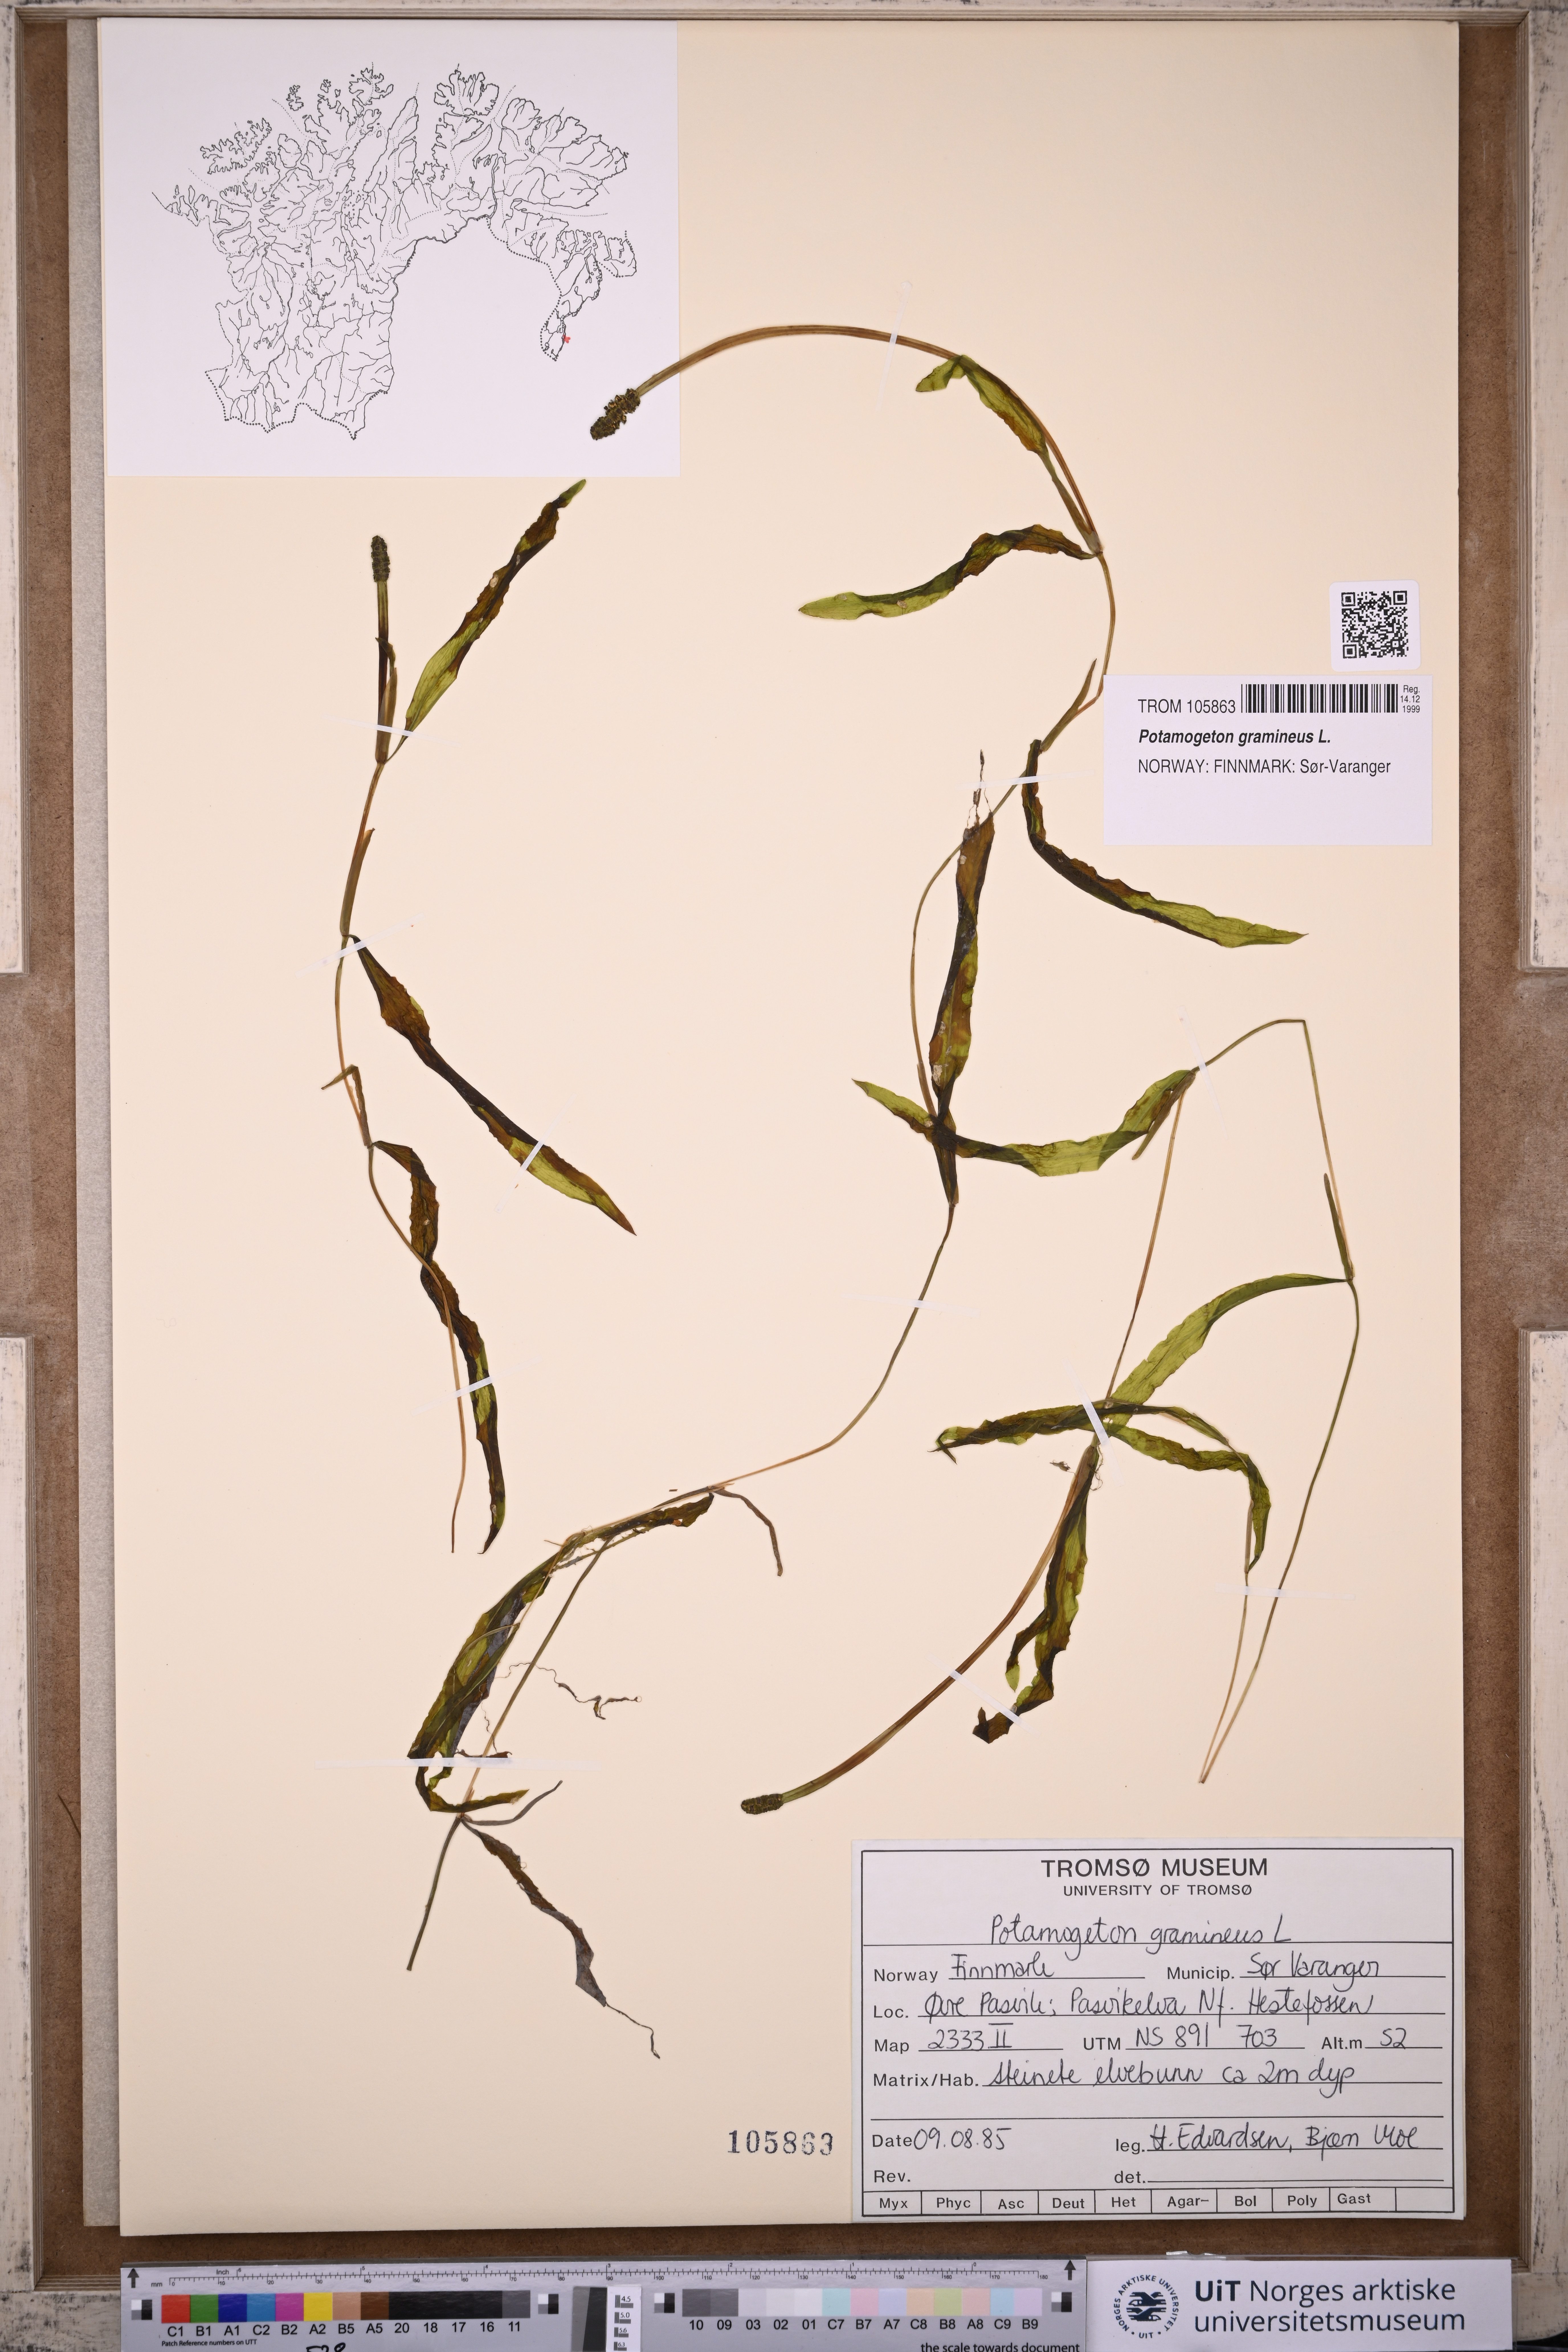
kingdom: Plantae
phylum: Tracheophyta
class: Liliopsida
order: Alismatales
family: Potamogetonaceae
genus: Potamogeton
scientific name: Potamogeton gramineus
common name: Various-leaved pondweed
